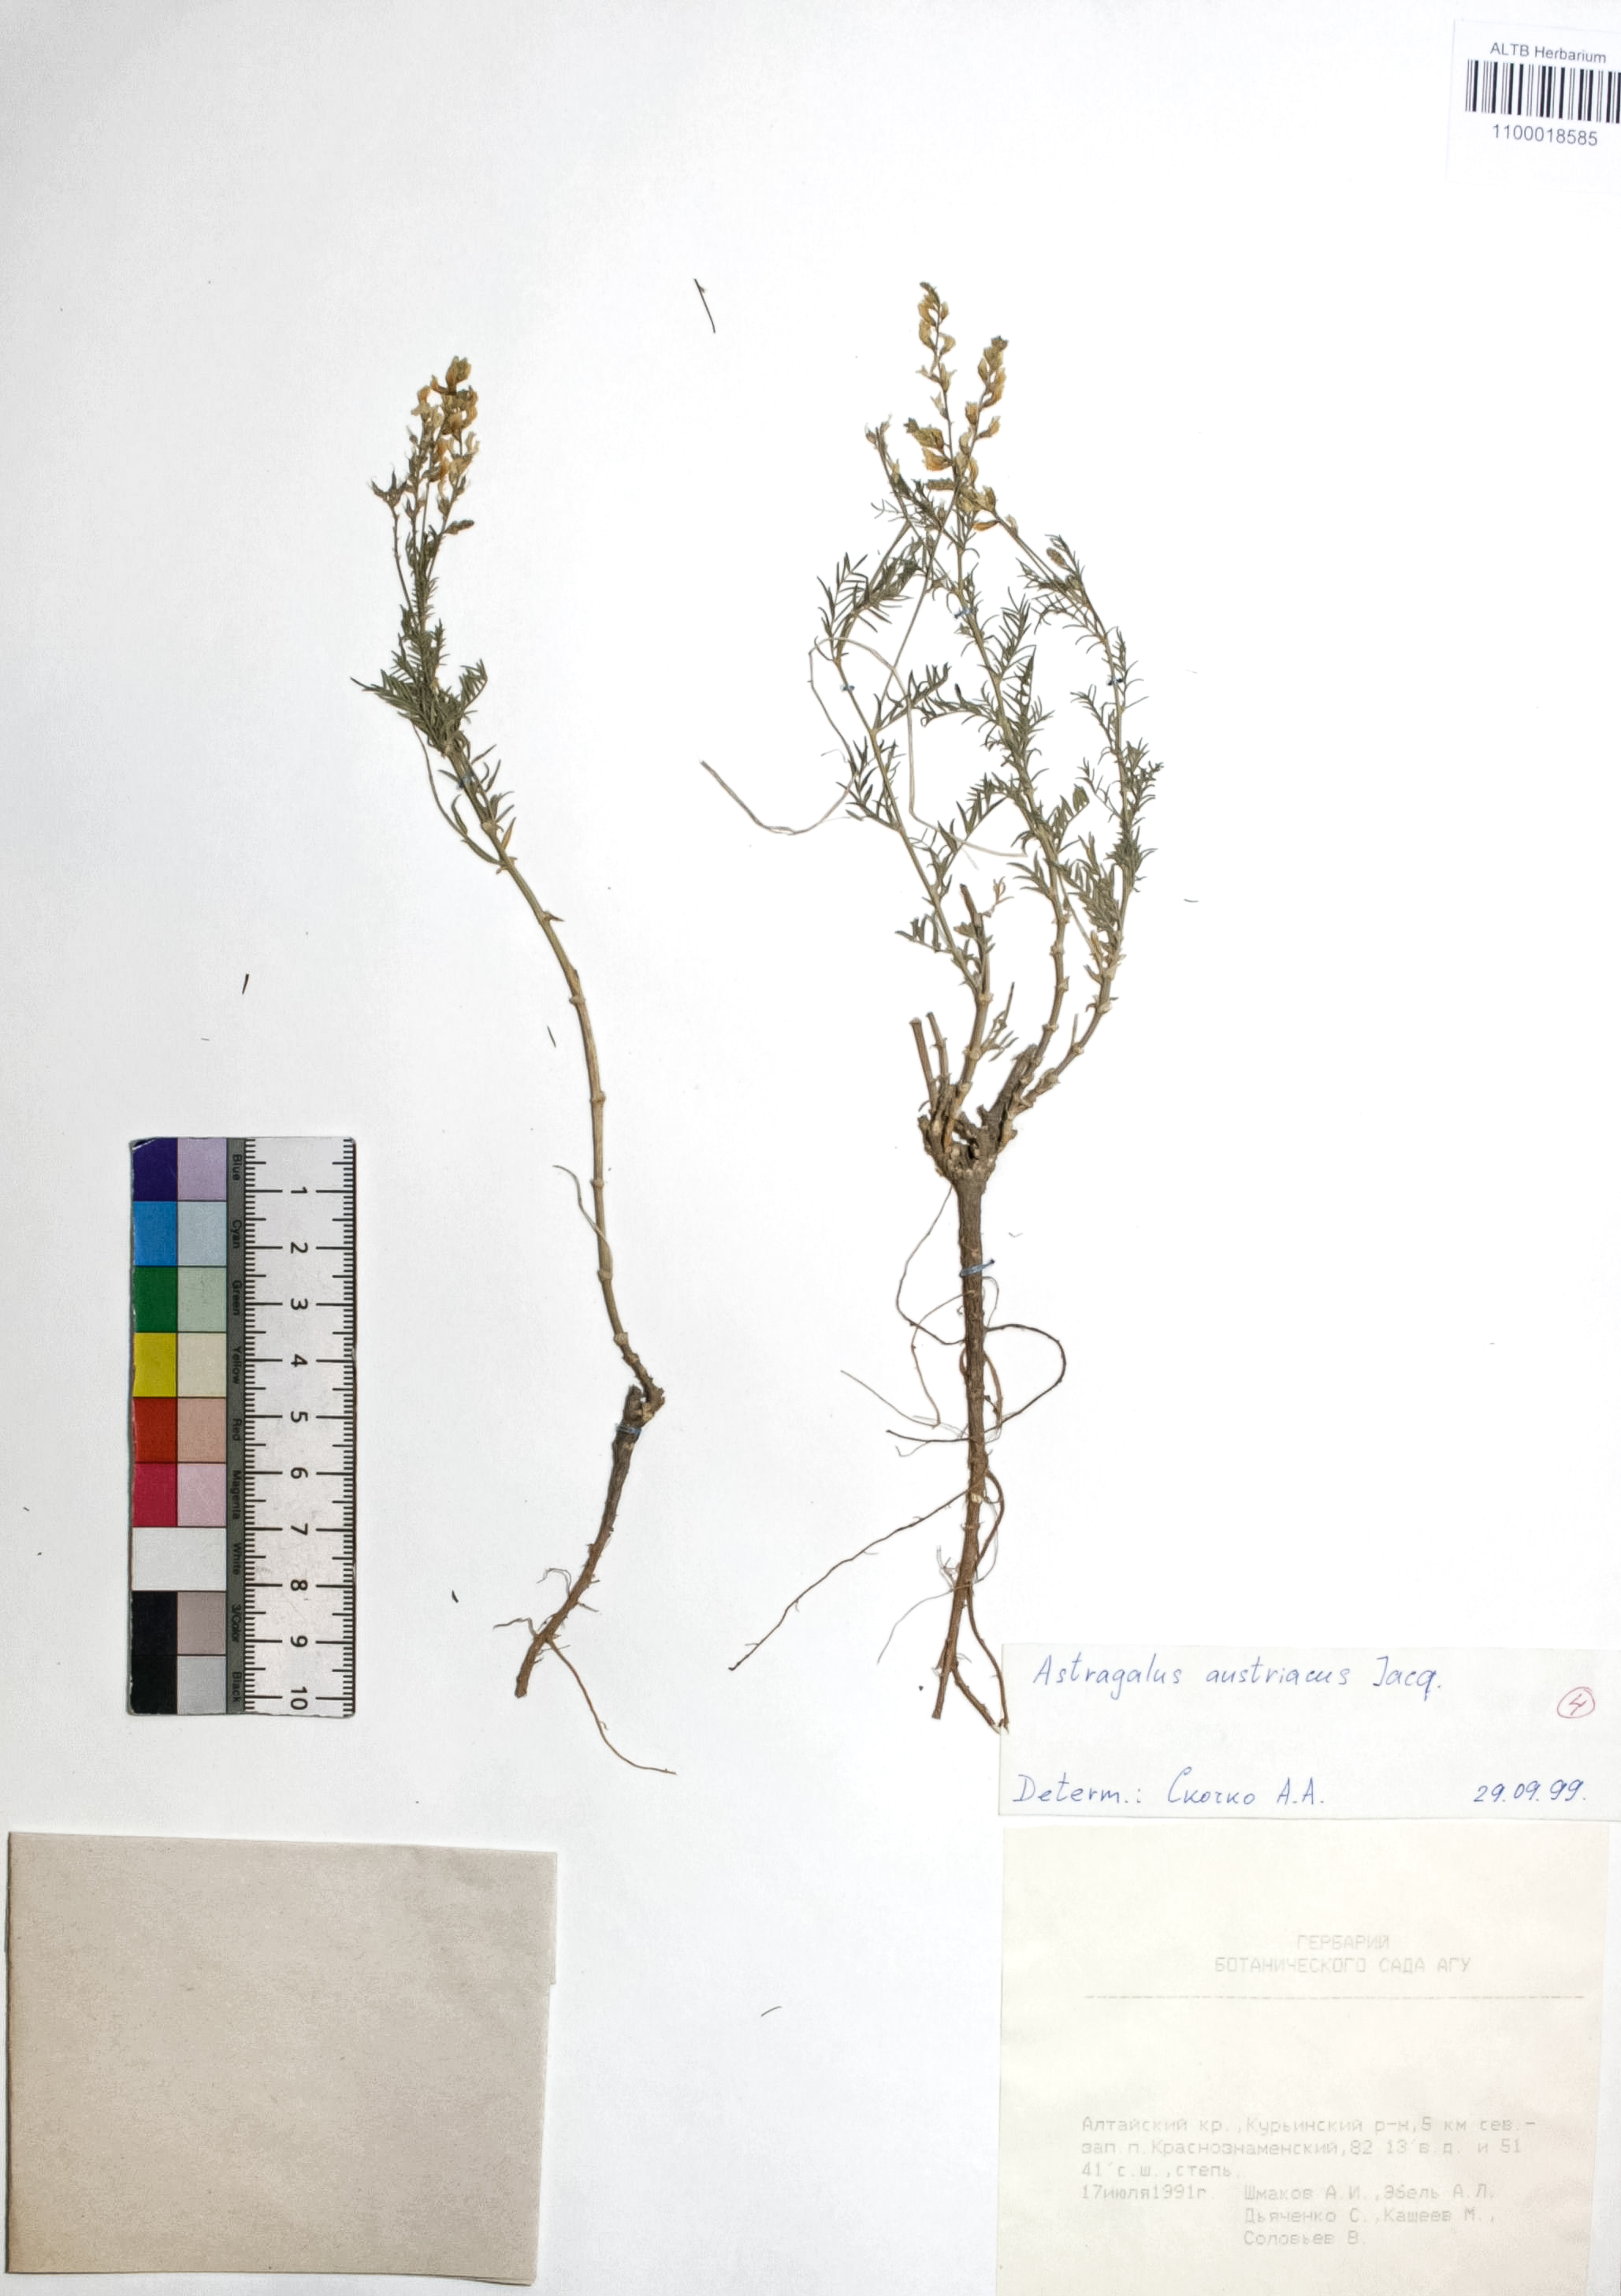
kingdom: Plantae
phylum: Tracheophyta
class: Magnoliopsida
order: Fabales
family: Fabaceae
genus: Astragalus
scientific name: Astragalus austriacus
